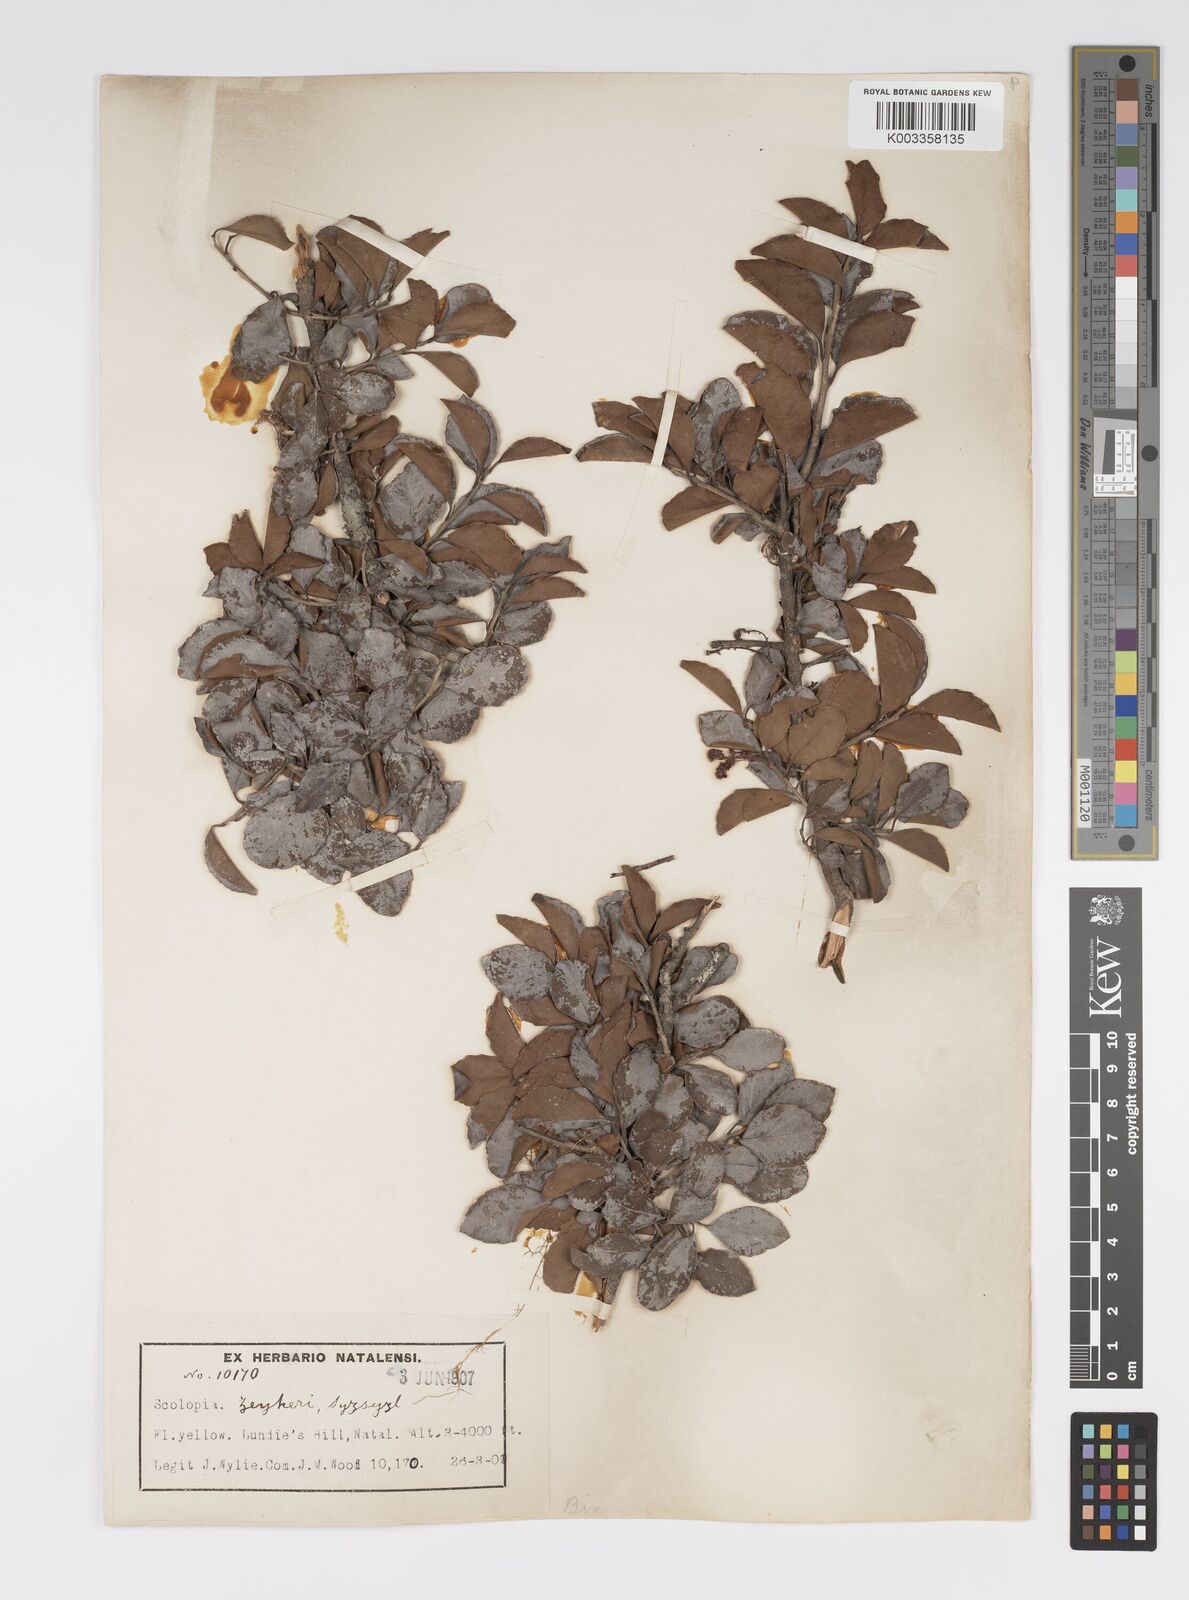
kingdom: Plantae
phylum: Tracheophyta
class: Magnoliopsida
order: Malpighiales
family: Salicaceae
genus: Scolopia
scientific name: Scolopia zeyheri
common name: Thorn pear
